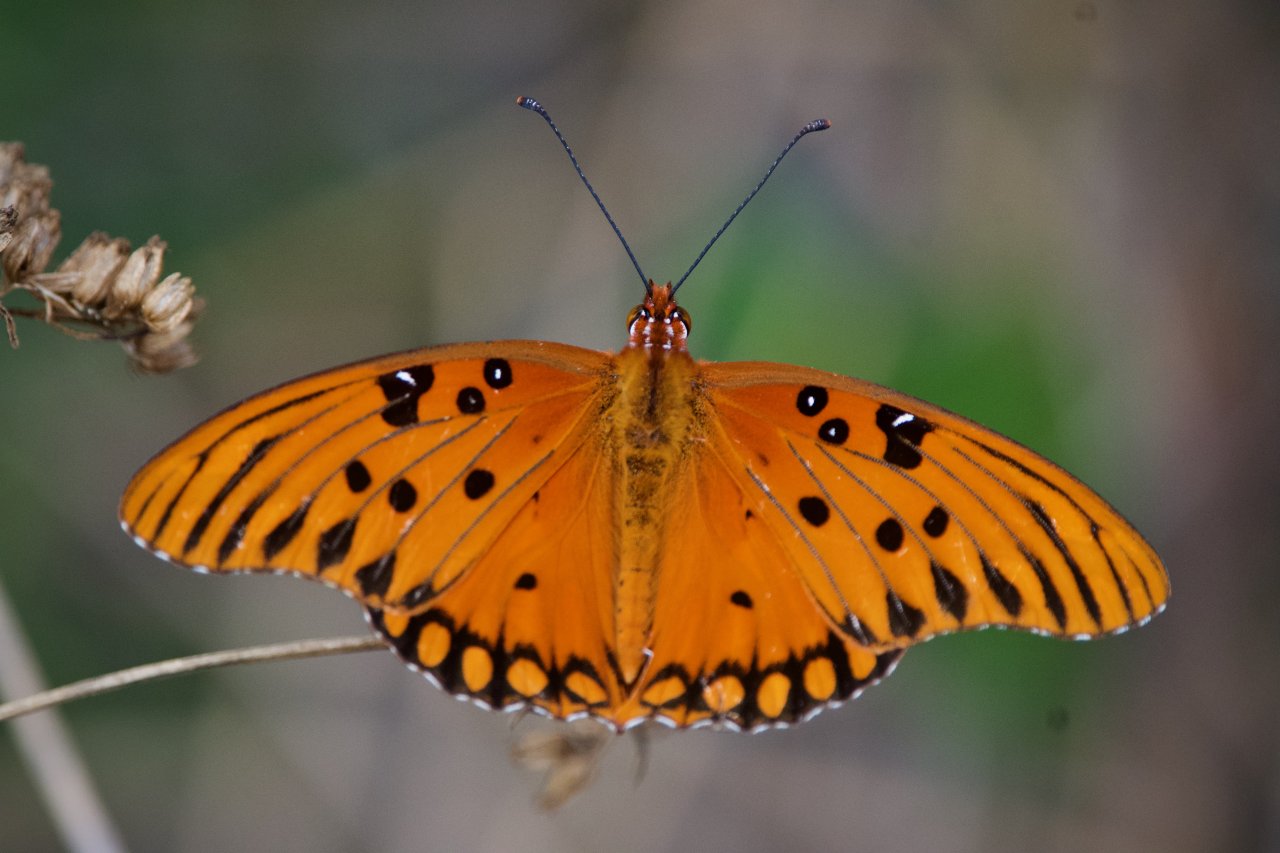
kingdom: Animalia
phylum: Arthropoda
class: Insecta
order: Lepidoptera
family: Nymphalidae
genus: Dione
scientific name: Dione vanillae
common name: Gulf Fritillary
